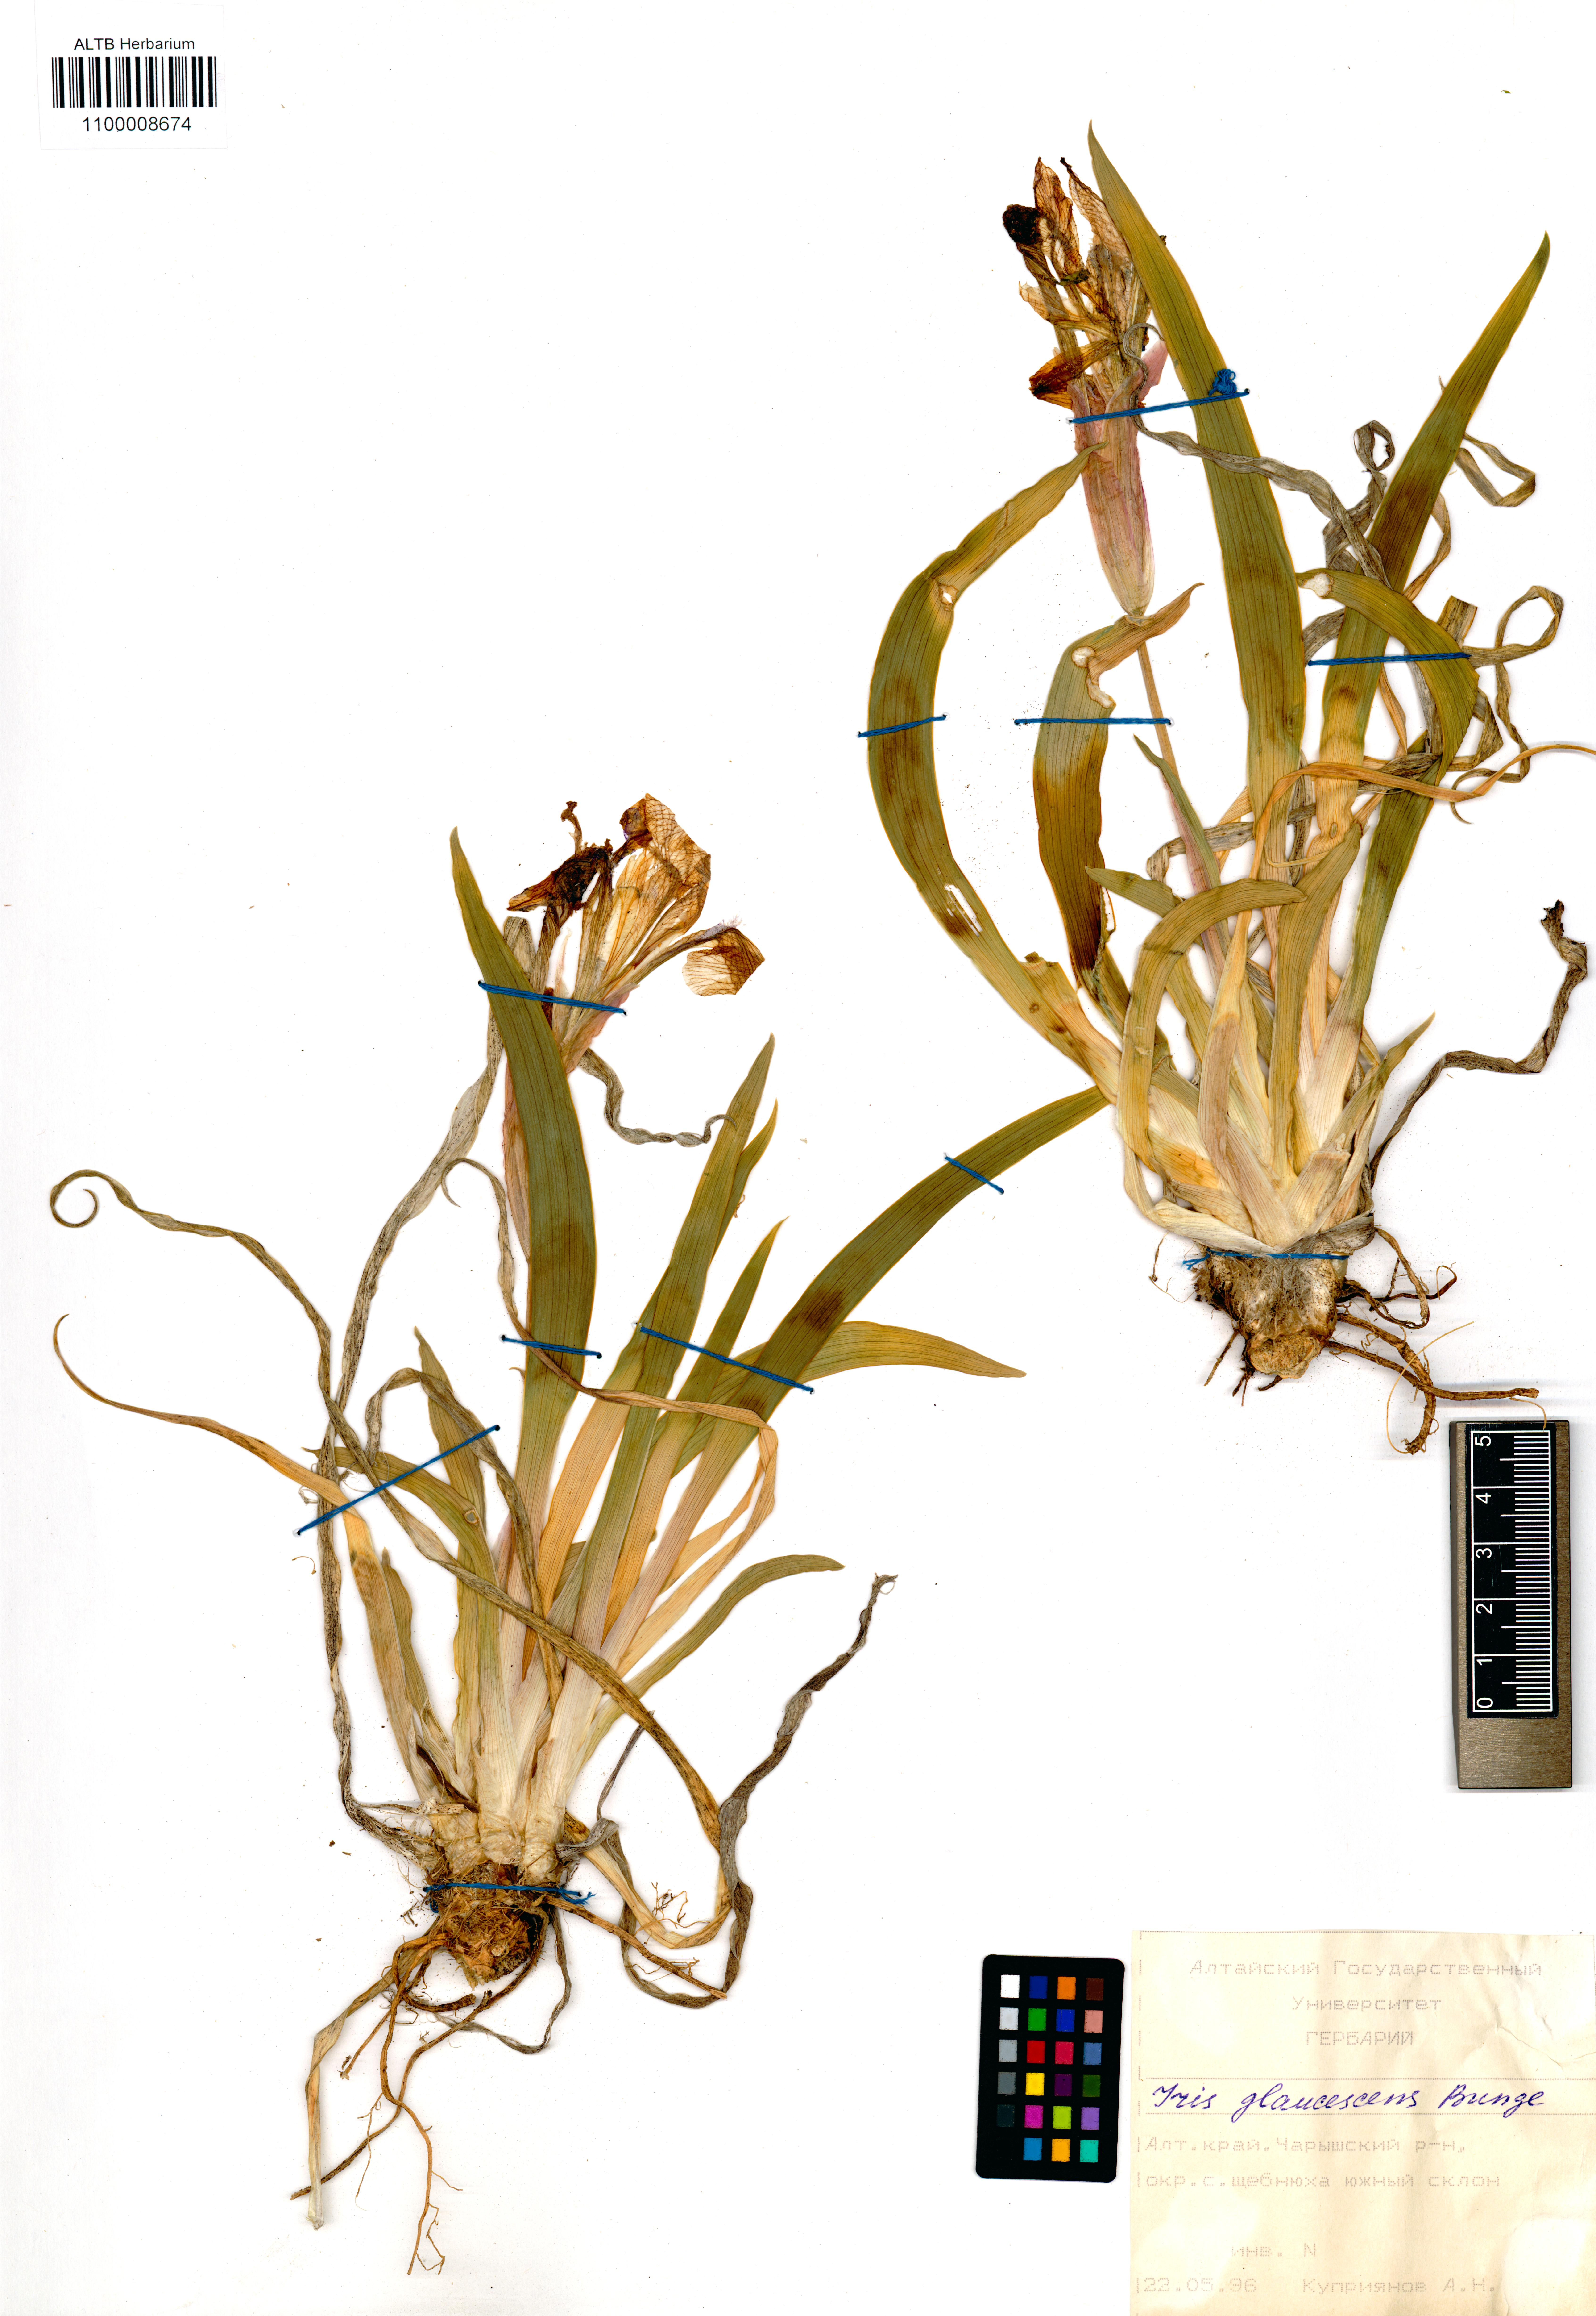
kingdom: Plantae
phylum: Tracheophyta
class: Liliopsida
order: Asparagales
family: Iridaceae
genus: Iris
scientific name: Iris glaucescens
